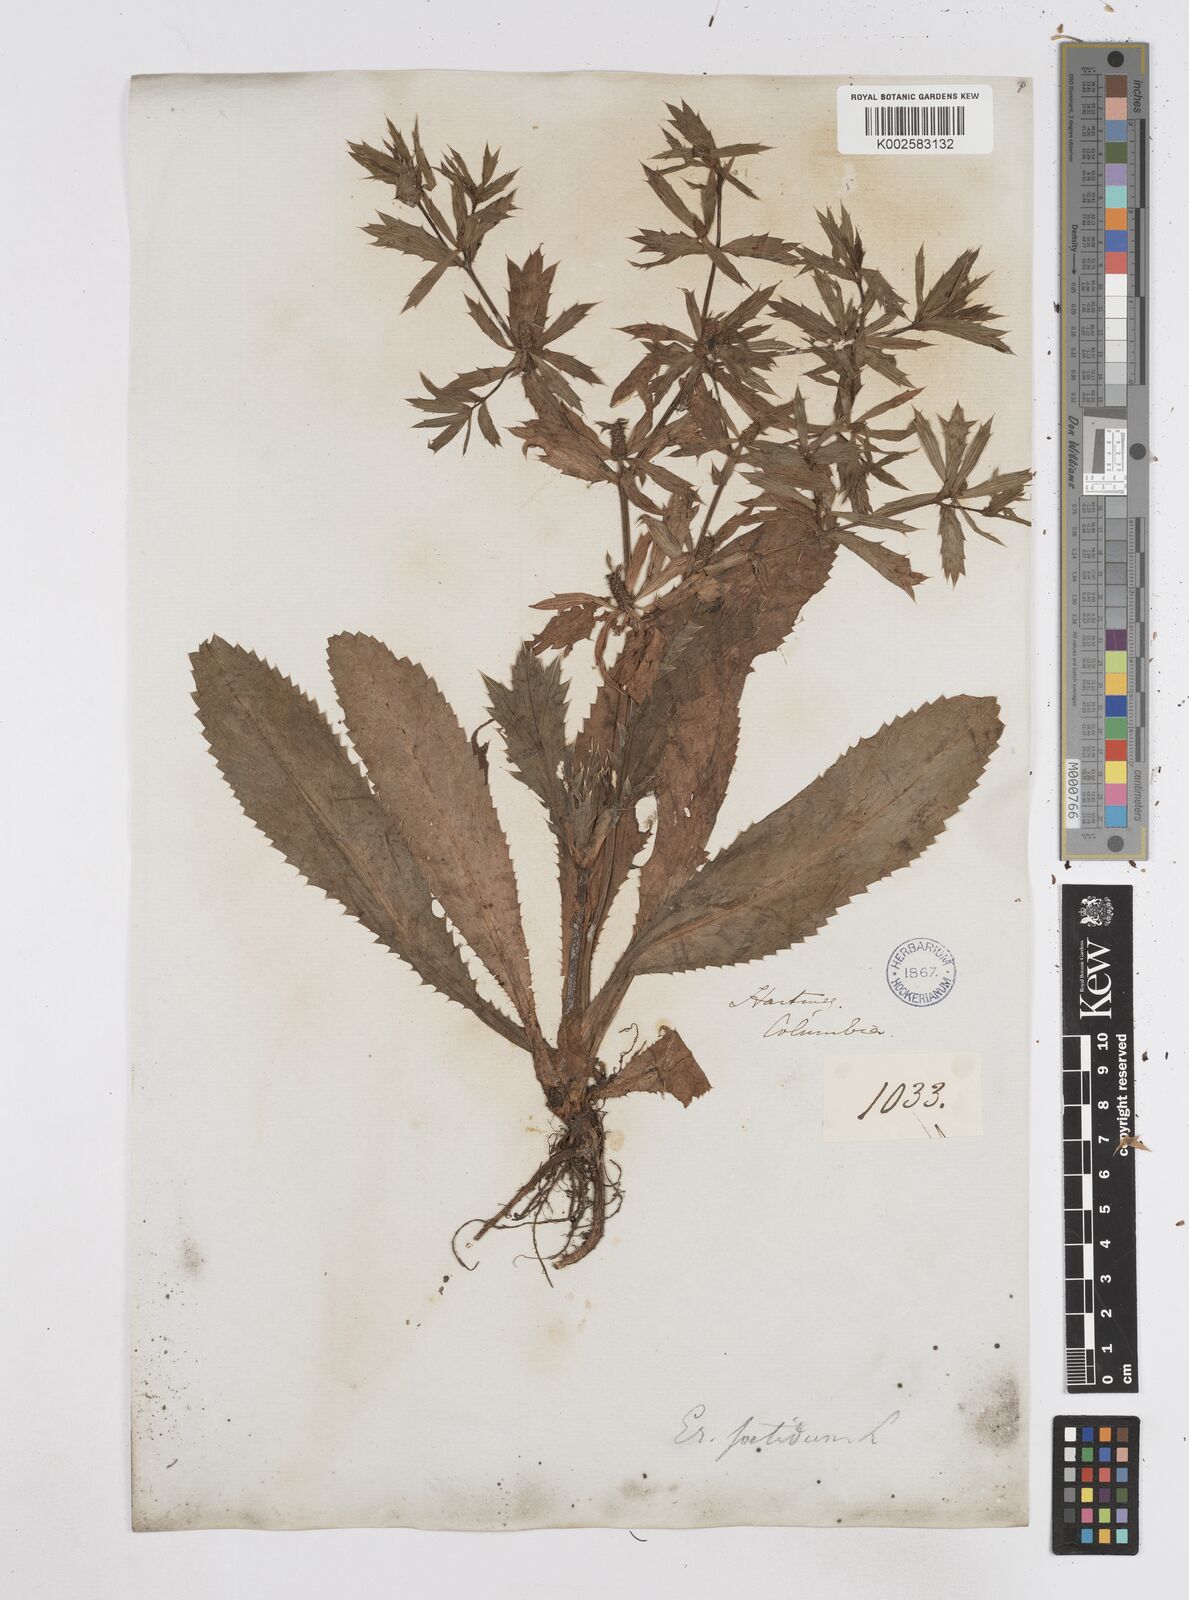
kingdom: Plantae
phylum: Tracheophyta
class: Magnoliopsida
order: Apiales
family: Apiaceae
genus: Eryngium
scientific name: Eryngium foetidum
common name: Fitweed
